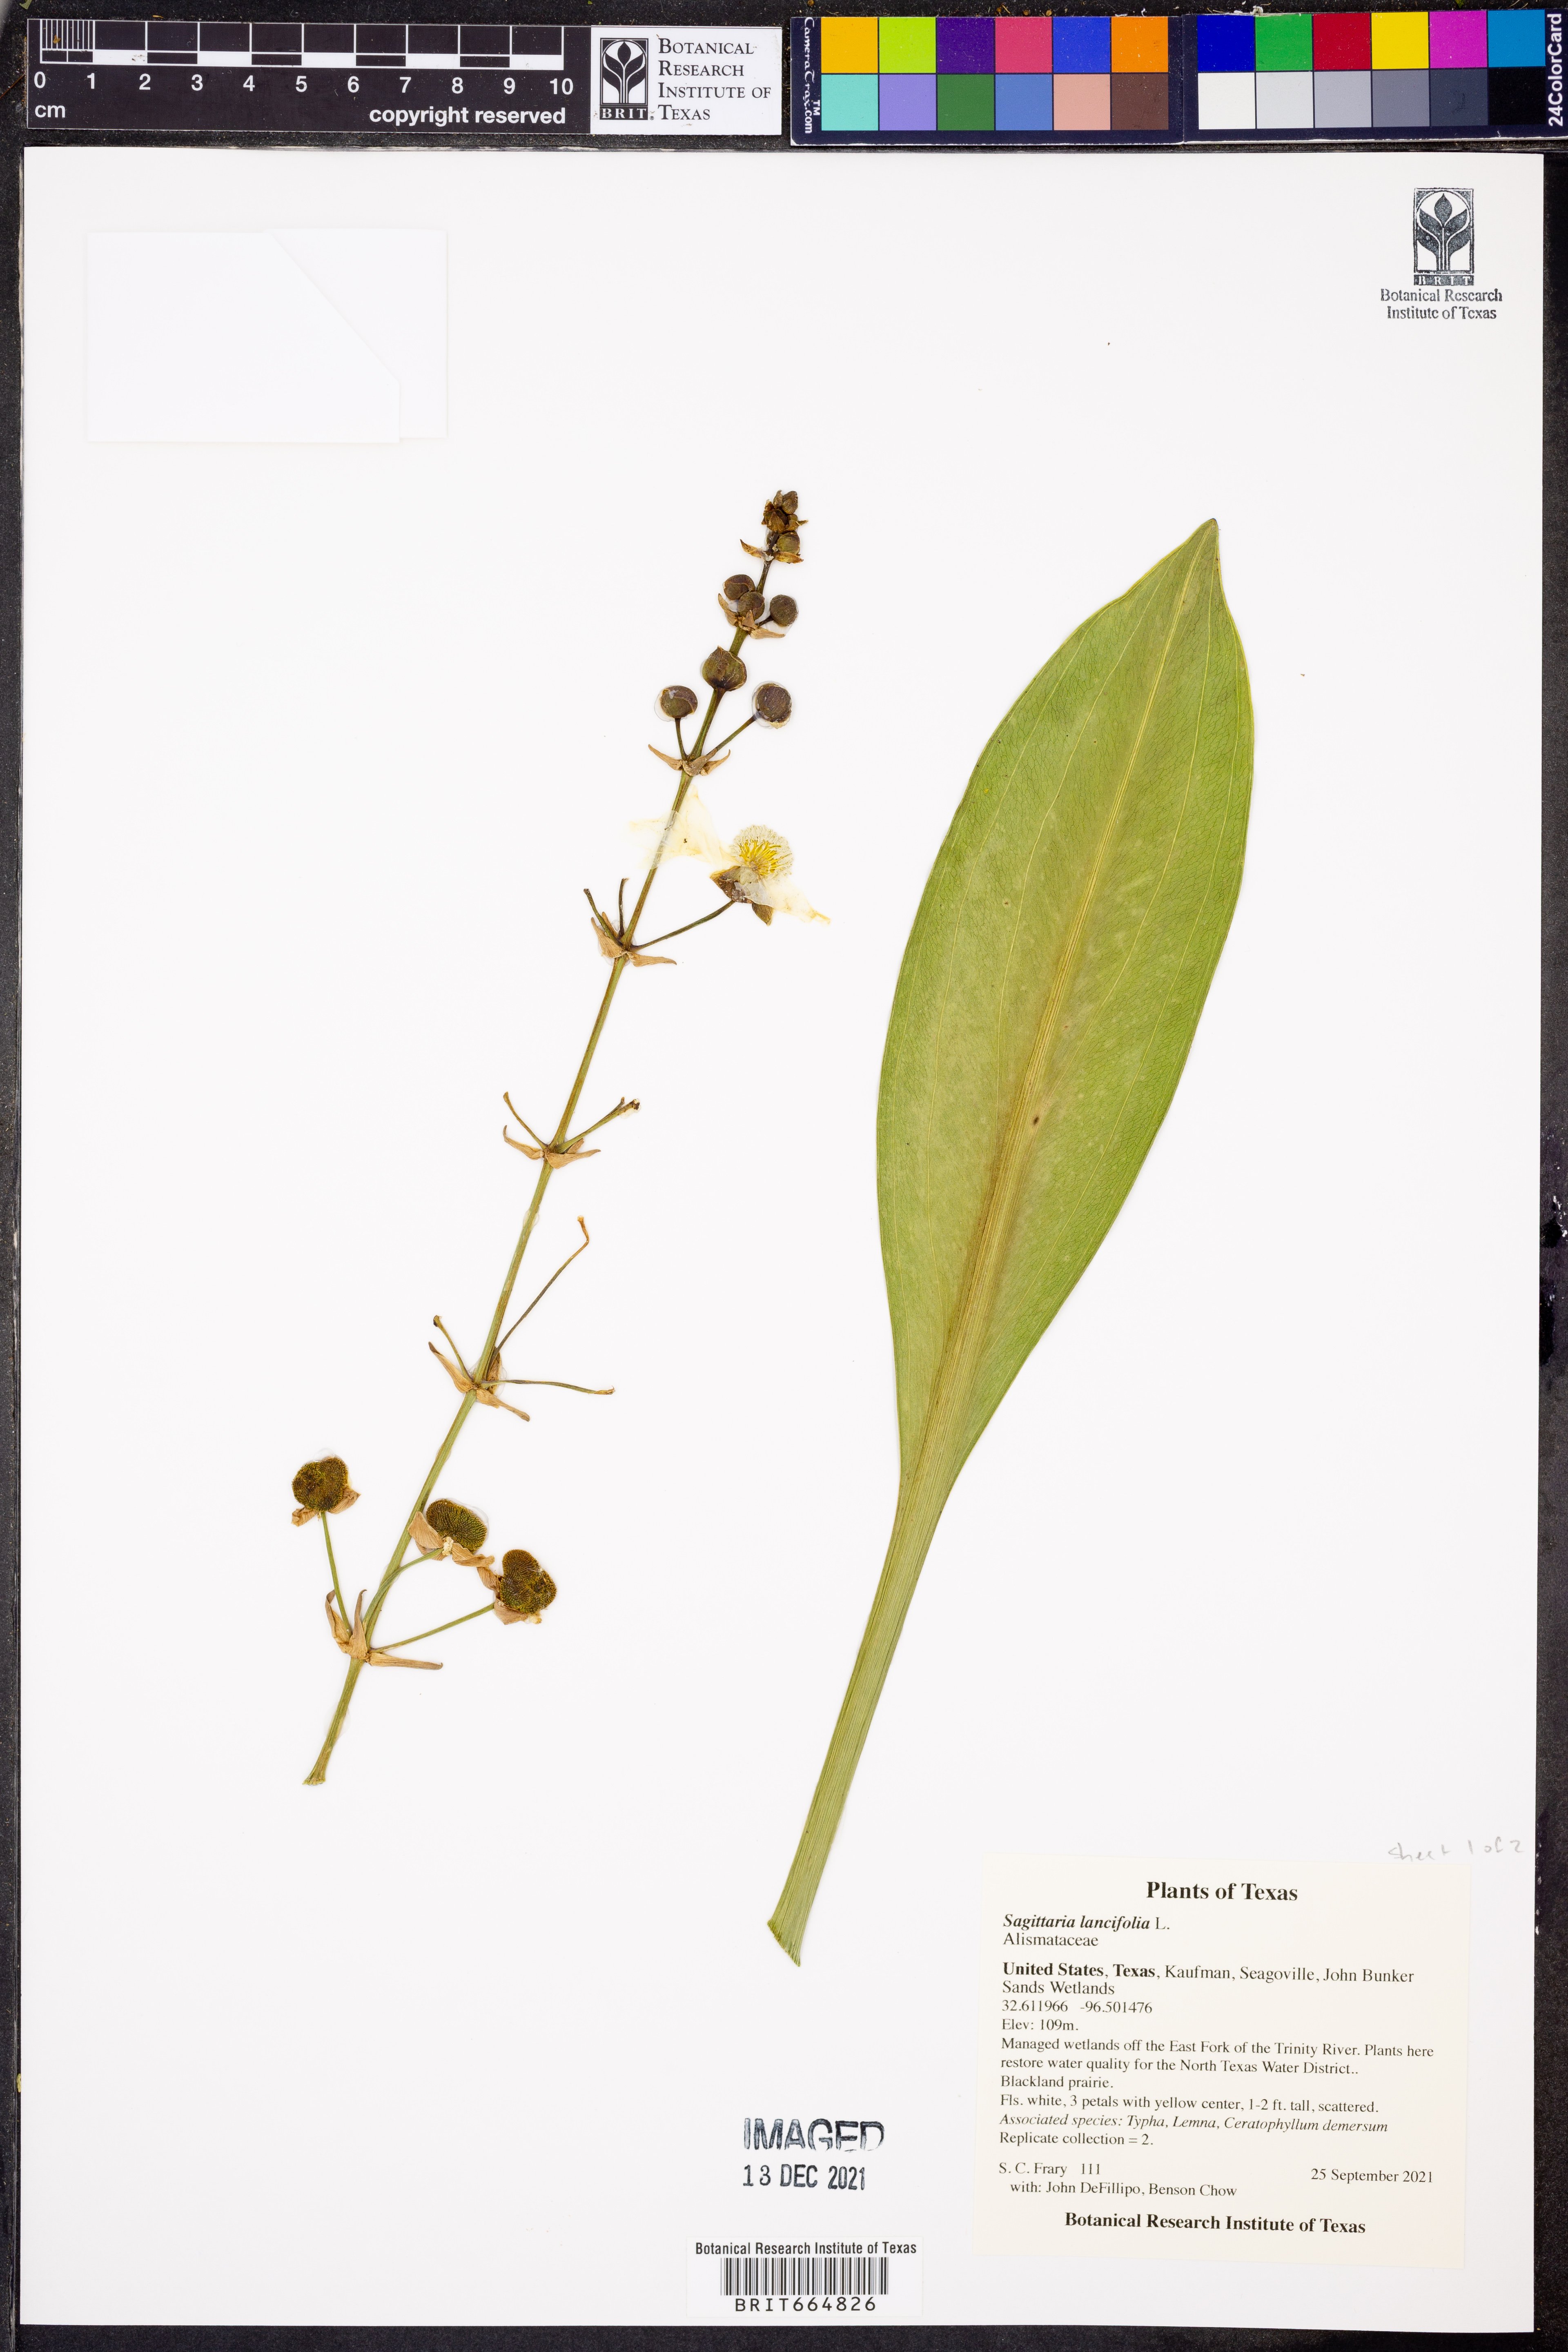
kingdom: Plantae
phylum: Tracheophyta
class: Liliopsida
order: Alismatales
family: Alismataceae
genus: Sagittaria
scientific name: Sagittaria lancifolia
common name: Lance-leaf arrowhead
